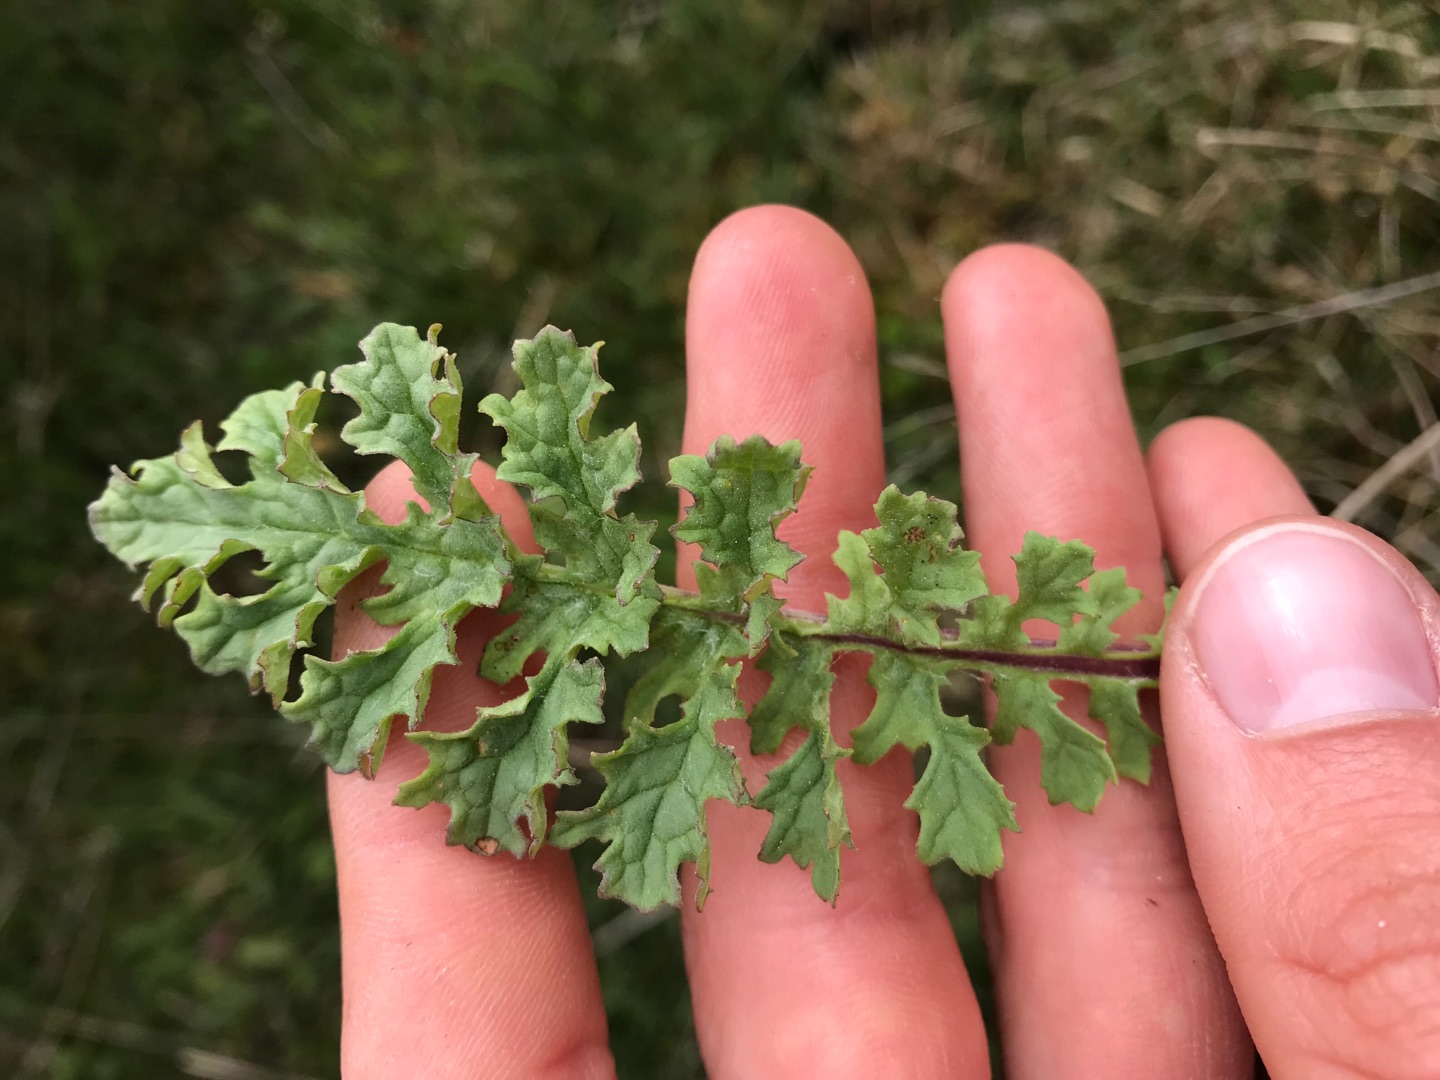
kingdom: Plantae
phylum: Tracheophyta
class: Magnoliopsida
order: Asterales
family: Asteraceae
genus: Jacobaea
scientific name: Jacobaea vulgaris
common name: Eng-brandbæger
